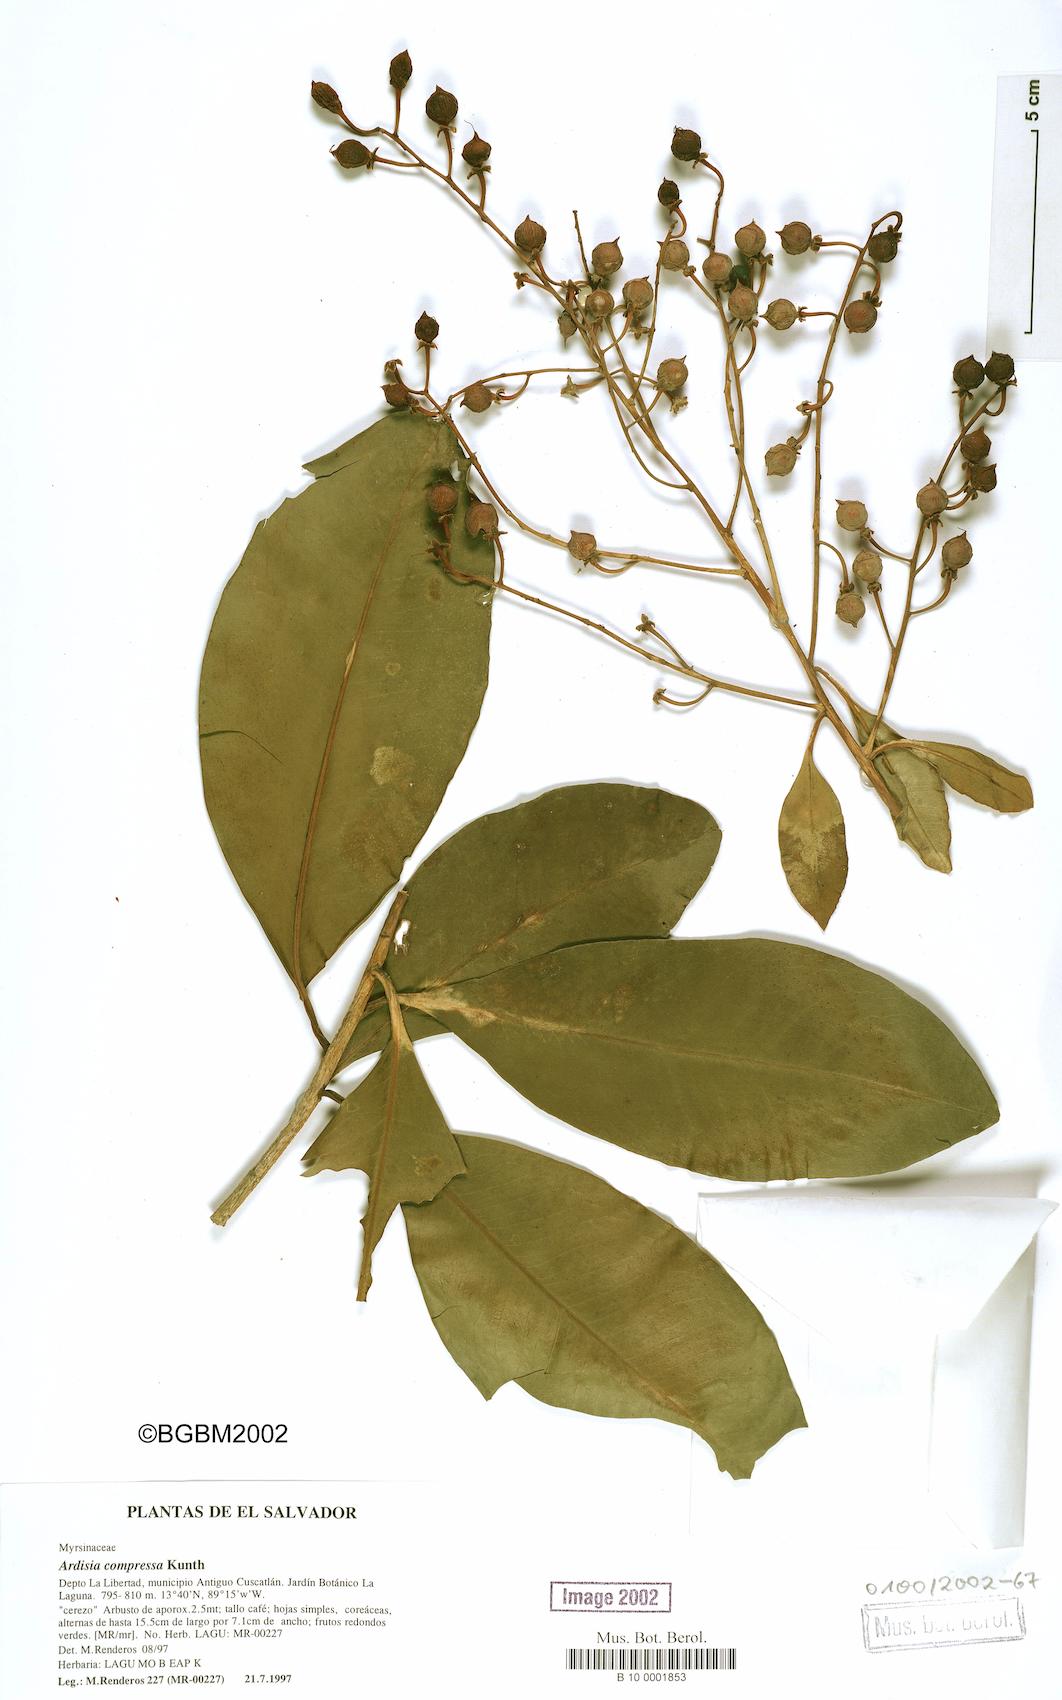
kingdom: Plantae
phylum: Tracheophyta
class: Magnoliopsida
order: Ericales
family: Primulaceae
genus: Ardisia
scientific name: Ardisia paschalis
